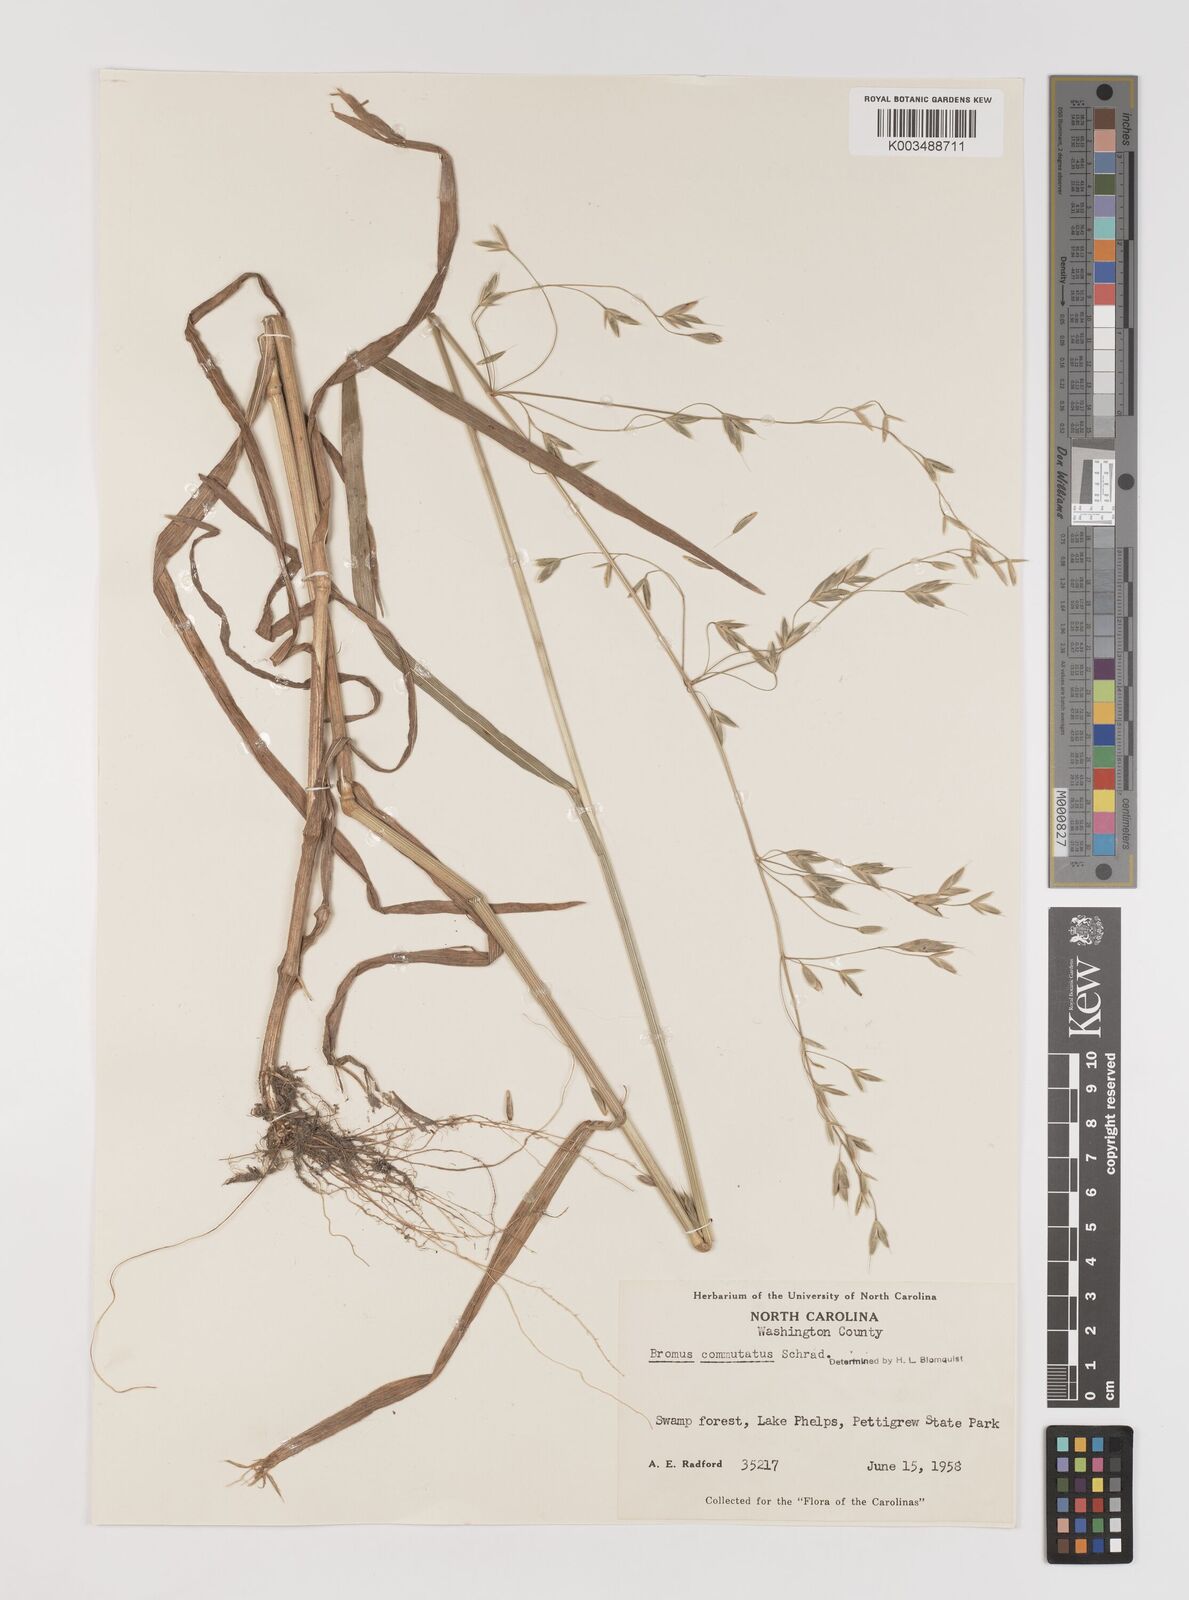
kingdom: Plantae
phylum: Tracheophyta
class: Liliopsida
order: Poales
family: Poaceae
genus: Bromus
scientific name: Bromus racemosus
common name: Bald brome
